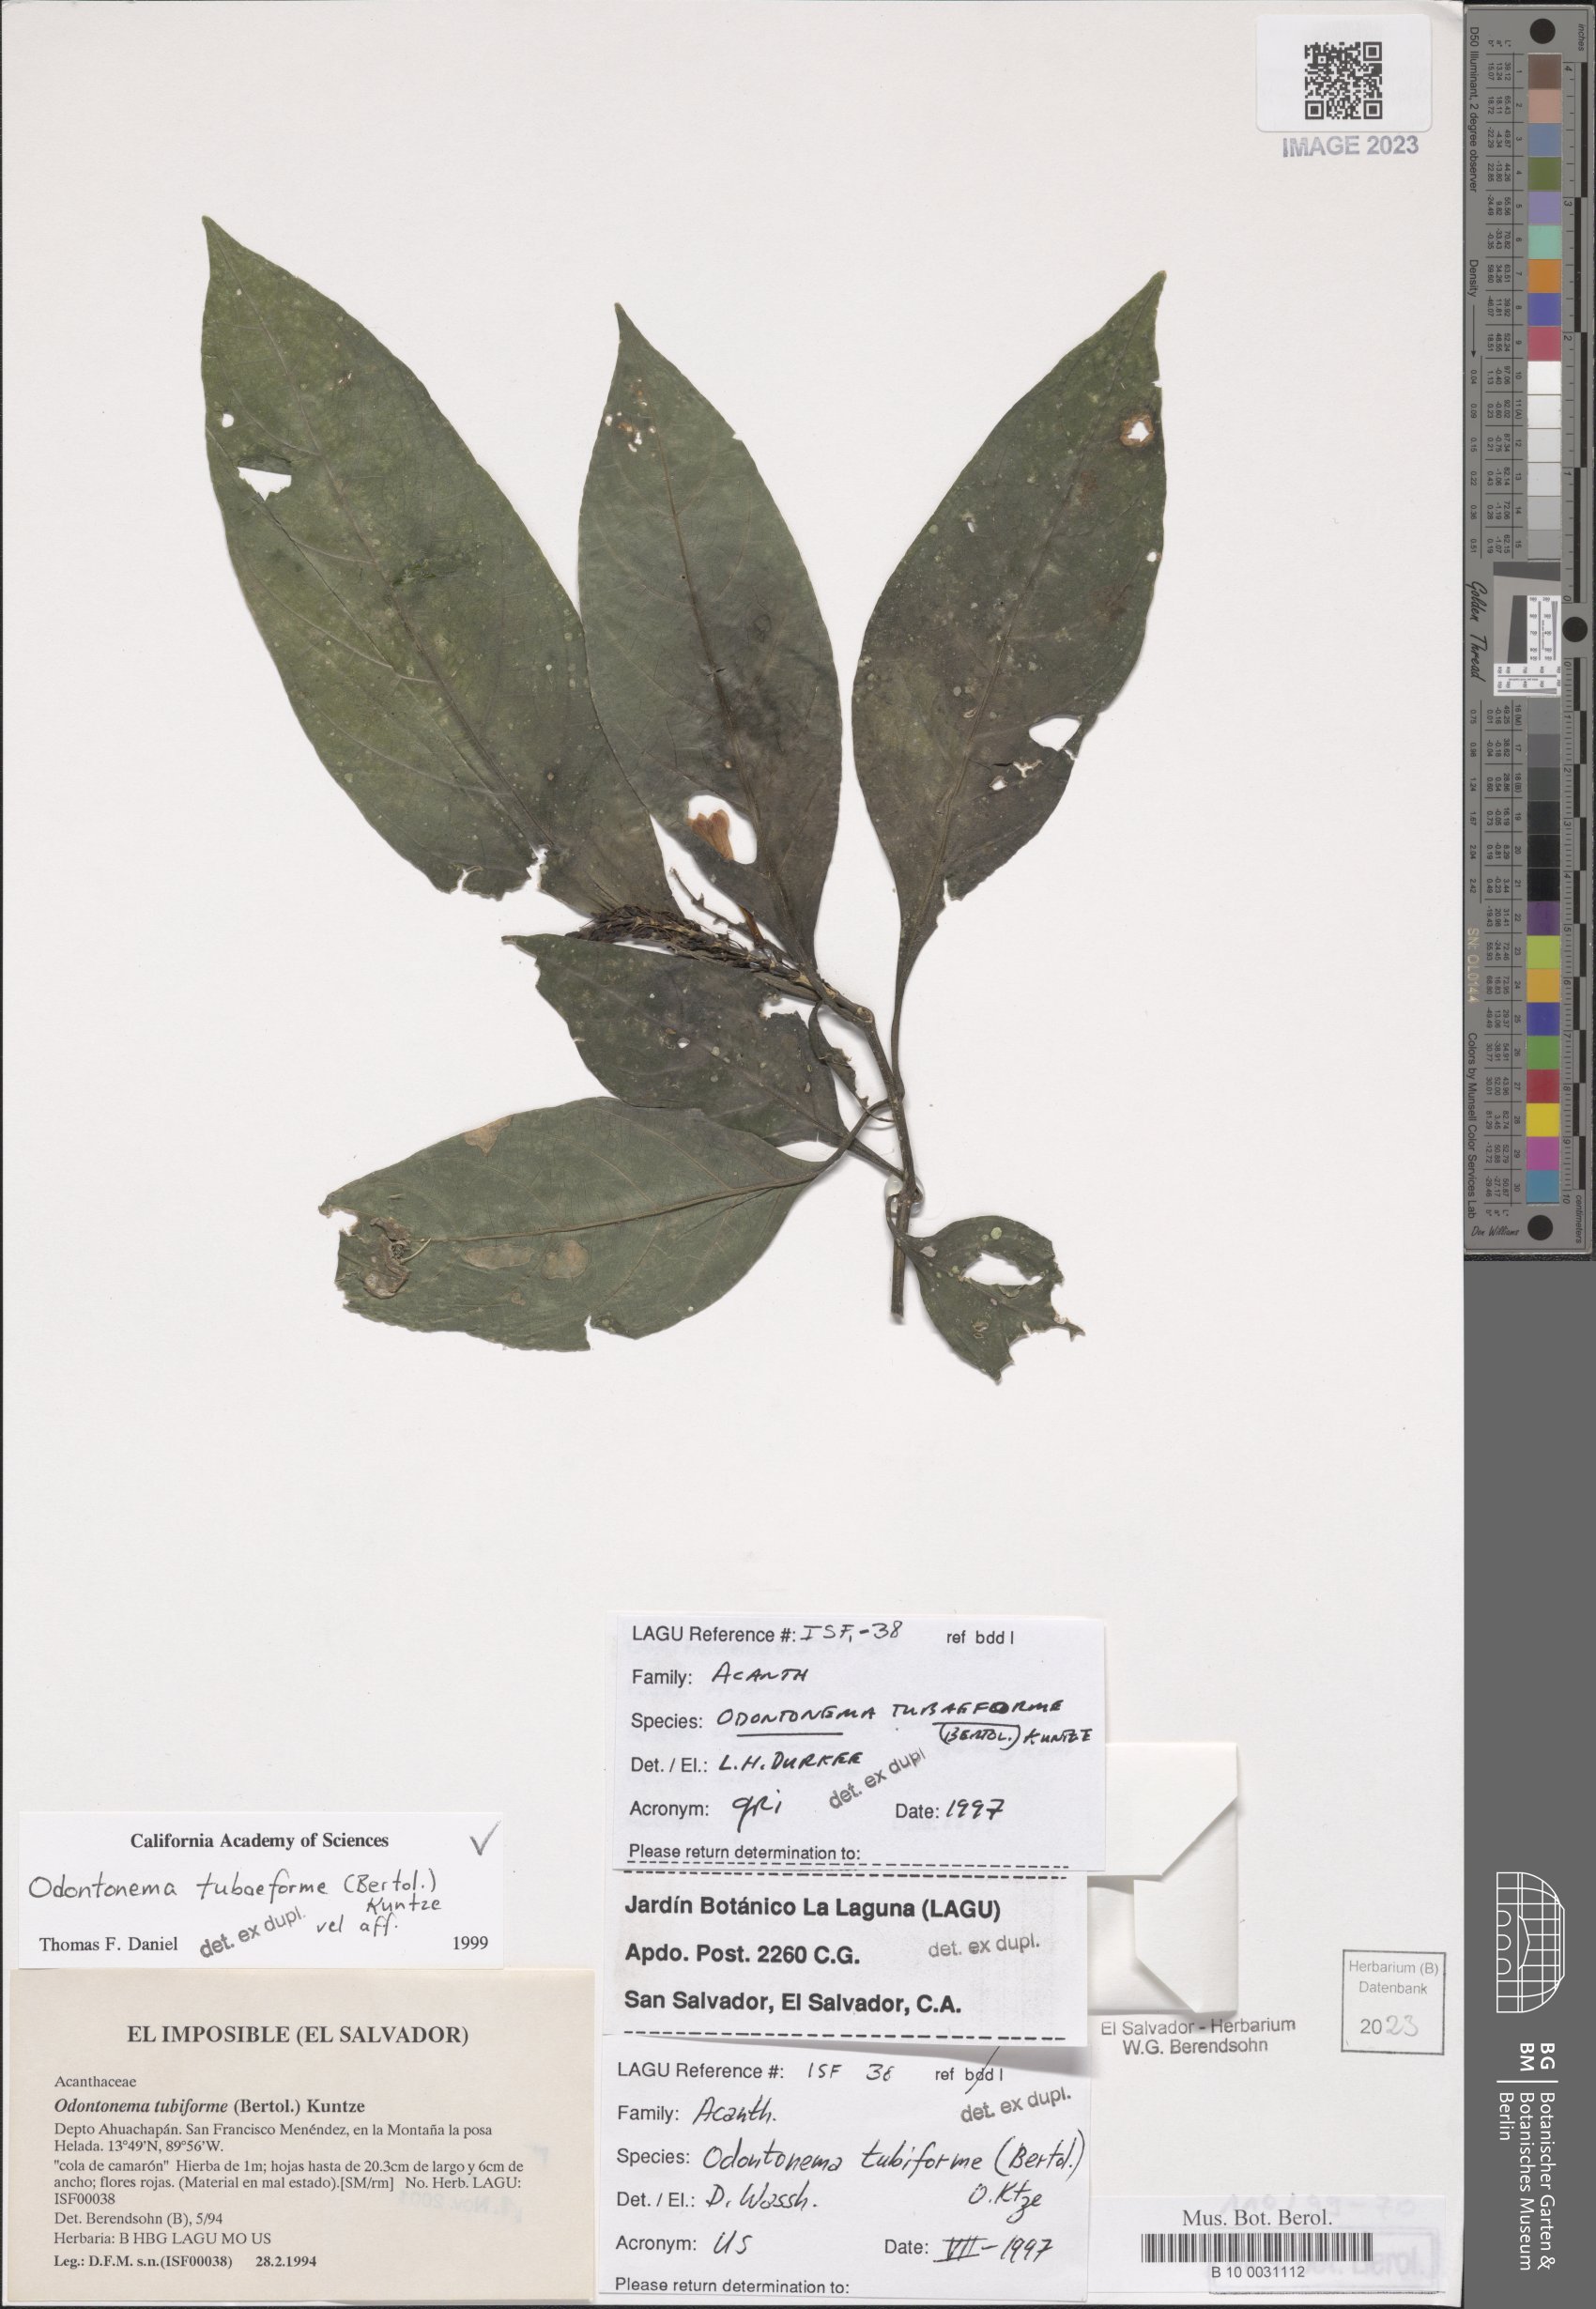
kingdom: Plantae
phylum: Tracheophyta
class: Magnoliopsida
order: Lamiales
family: Acanthaceae
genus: Odontonema
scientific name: Odontonema tubaeforme
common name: Firespike
